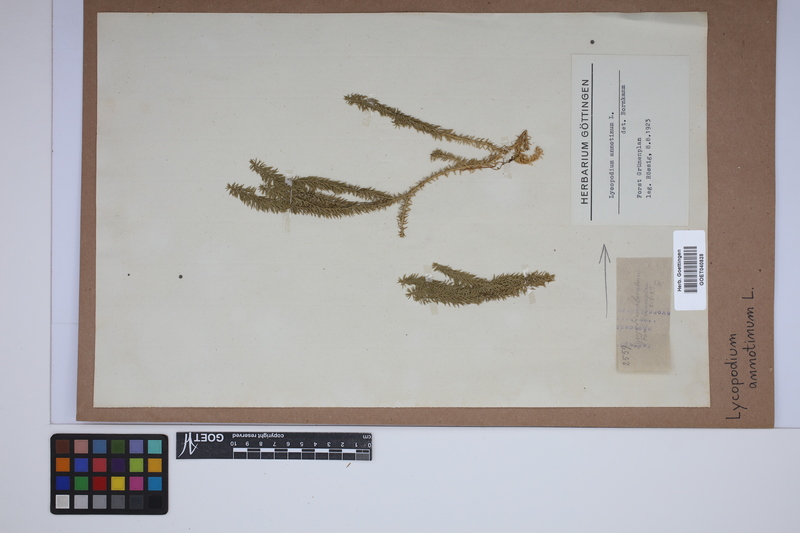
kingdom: Plantae
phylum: Tracheophyta
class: Lycopodiopsida
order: Lycopodiales
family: Lycopodiaceae
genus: Spinulum
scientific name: Spinulum annotinum
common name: Interrupted club-moss
